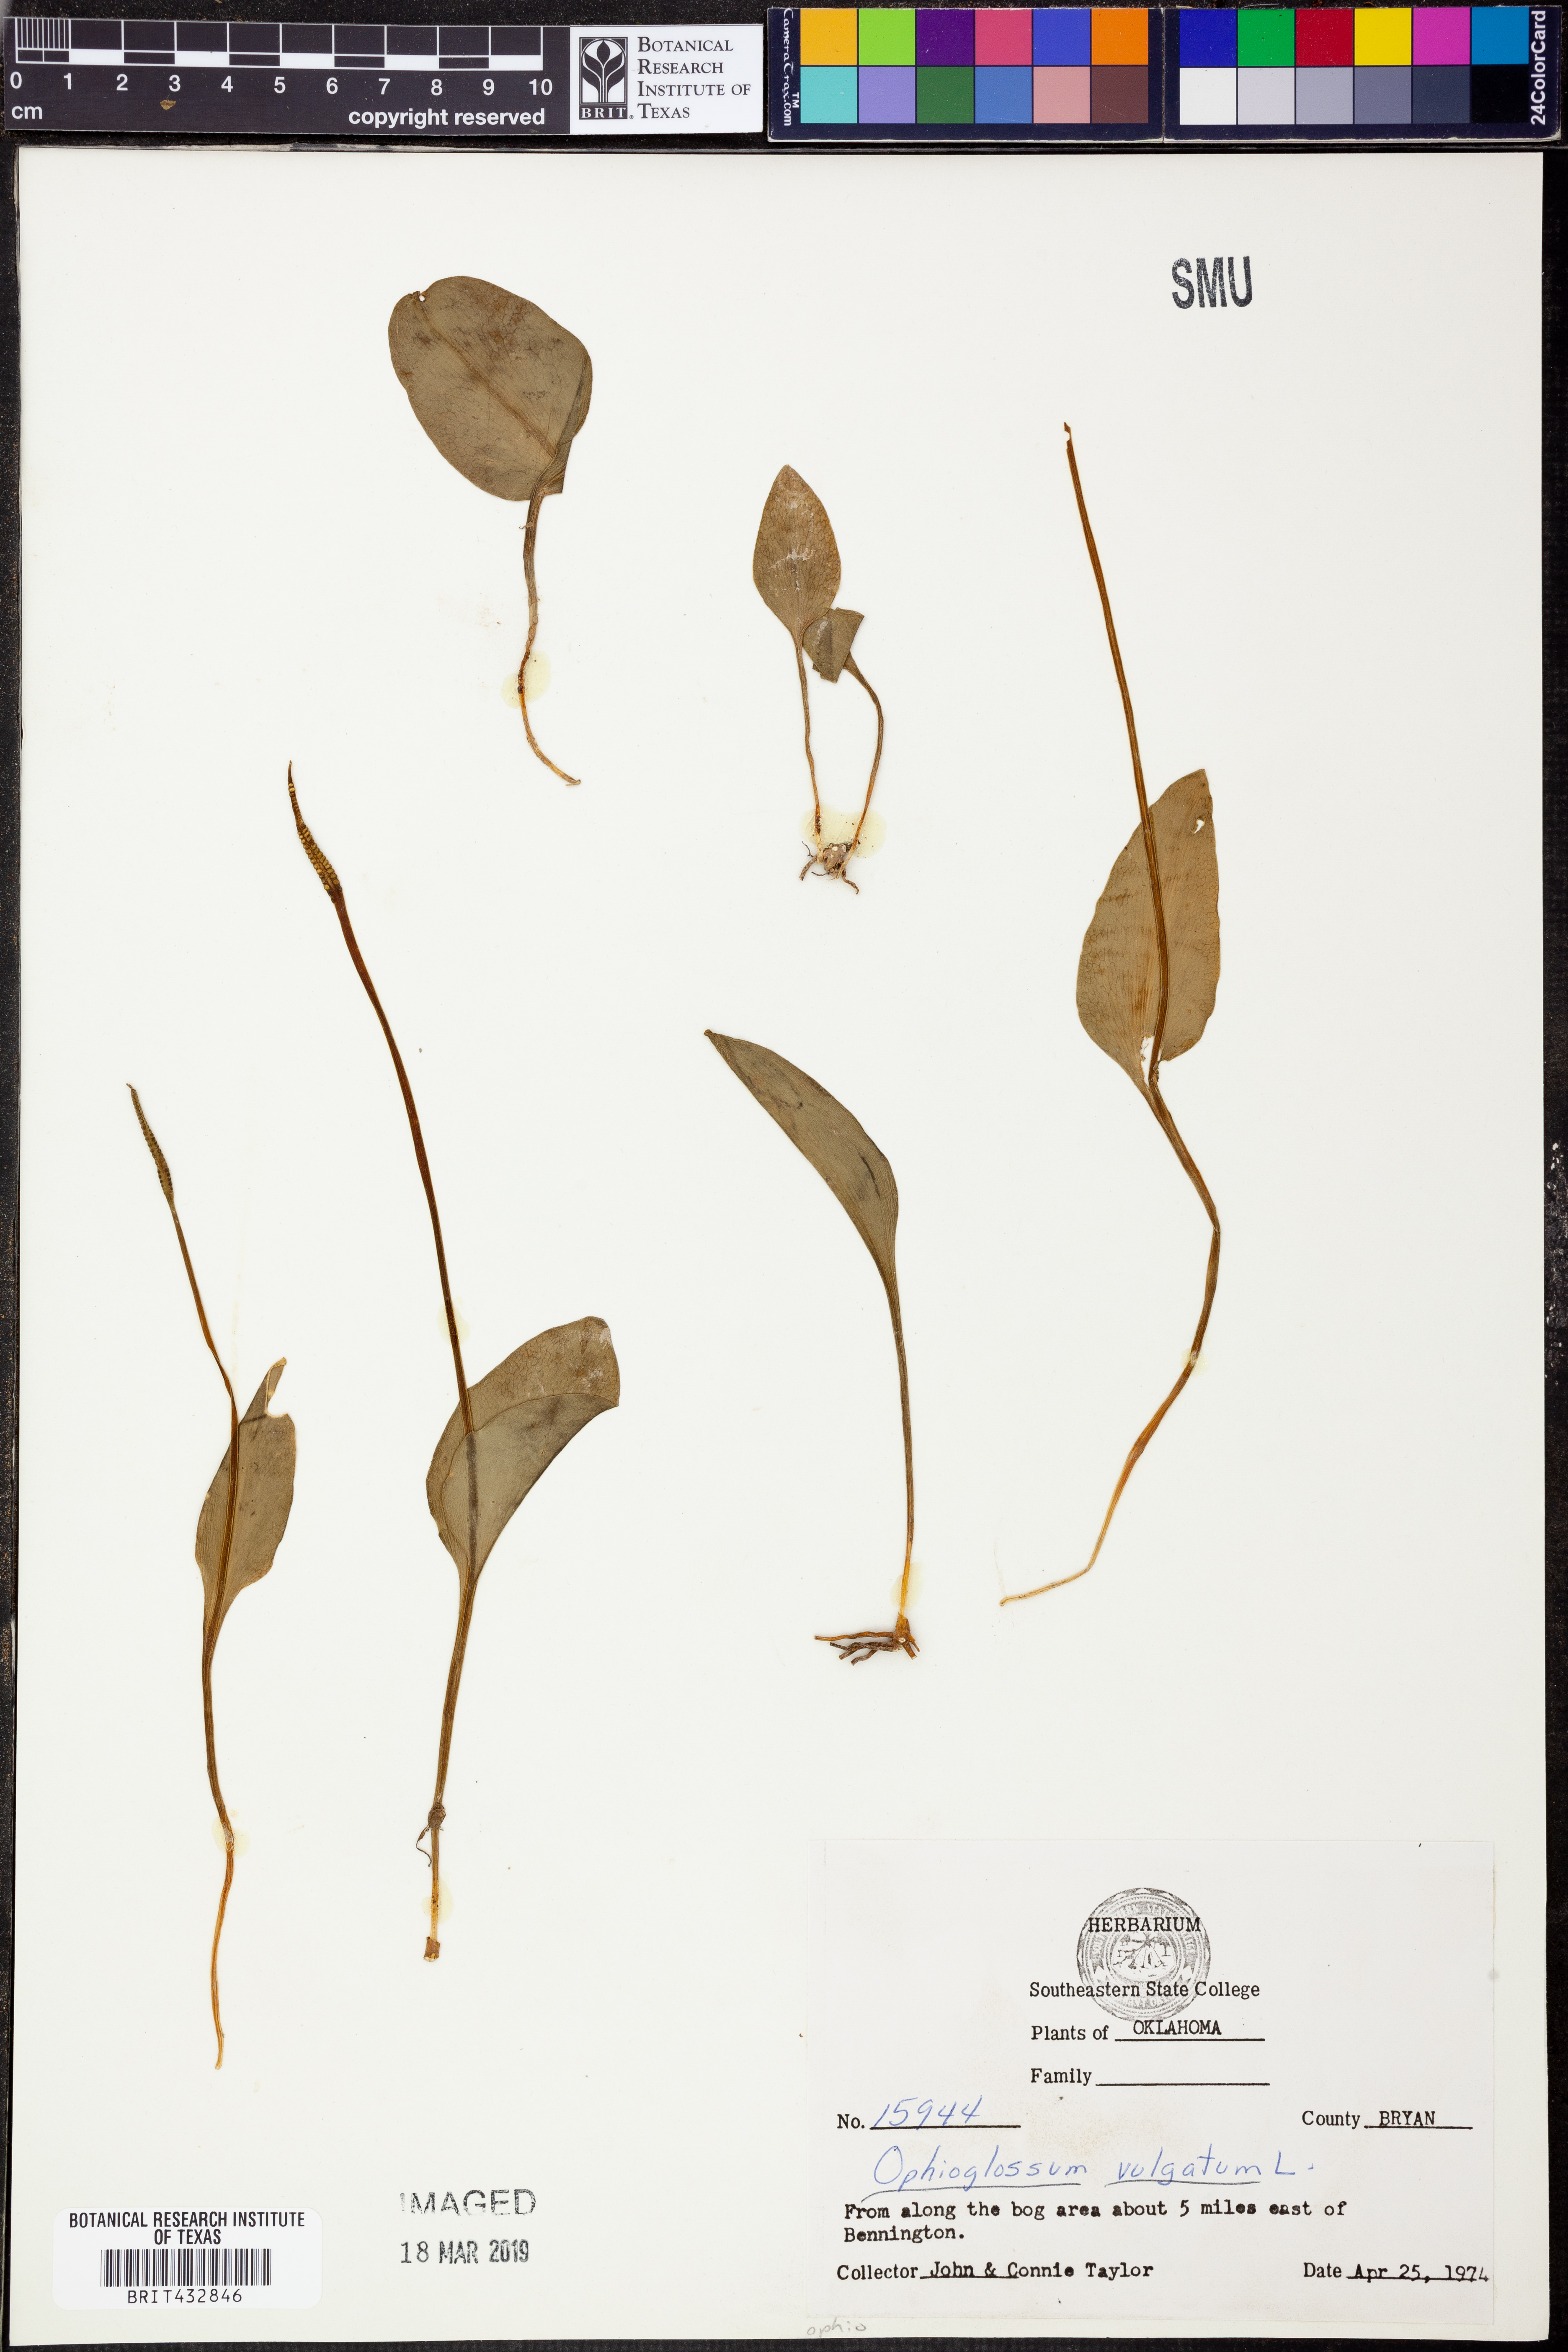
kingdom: Plantae
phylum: Tracheophyta
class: Polypodiopsida
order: Ophioglossales
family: Ophioglossaceae
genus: Ophioglossum
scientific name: Ophioglossum vulgatum
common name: Adder's-tongue
